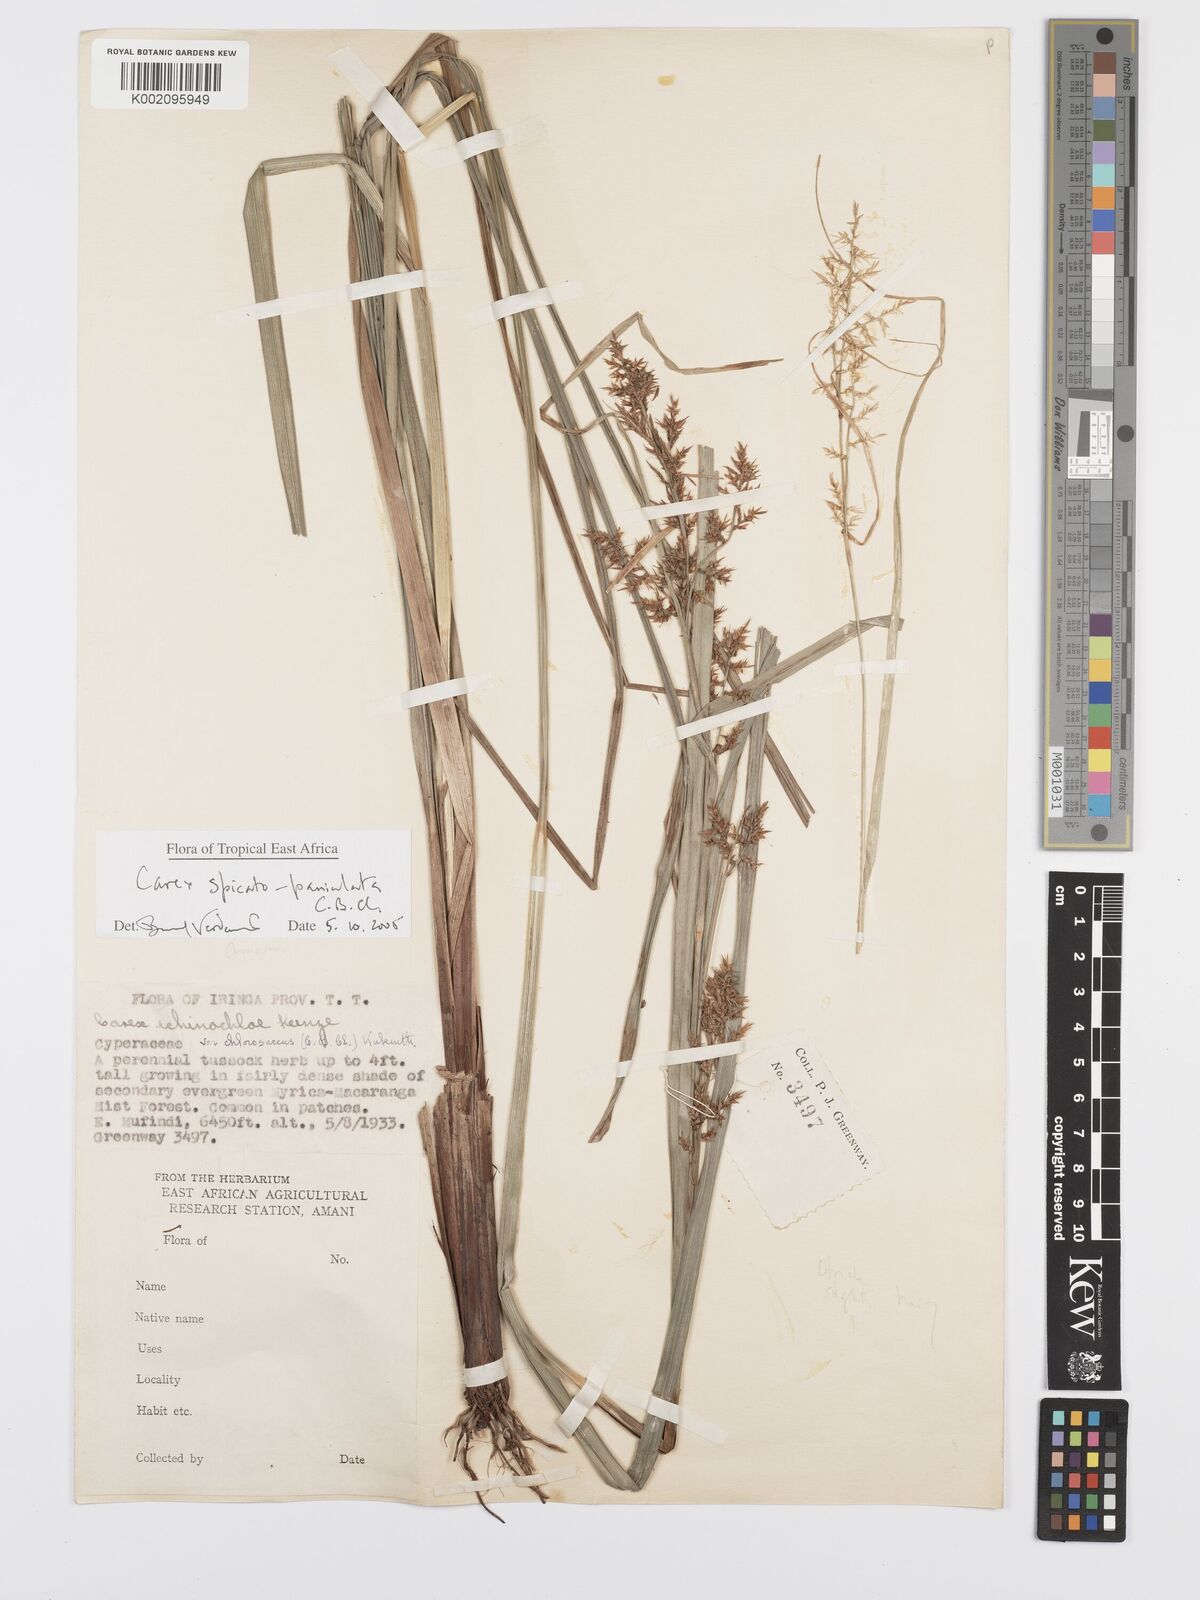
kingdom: Plantae
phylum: Tracheophyta
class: Liliopsida
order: Poales
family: Cyperaceae
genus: Carex
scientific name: Carex spicatopaniculata
